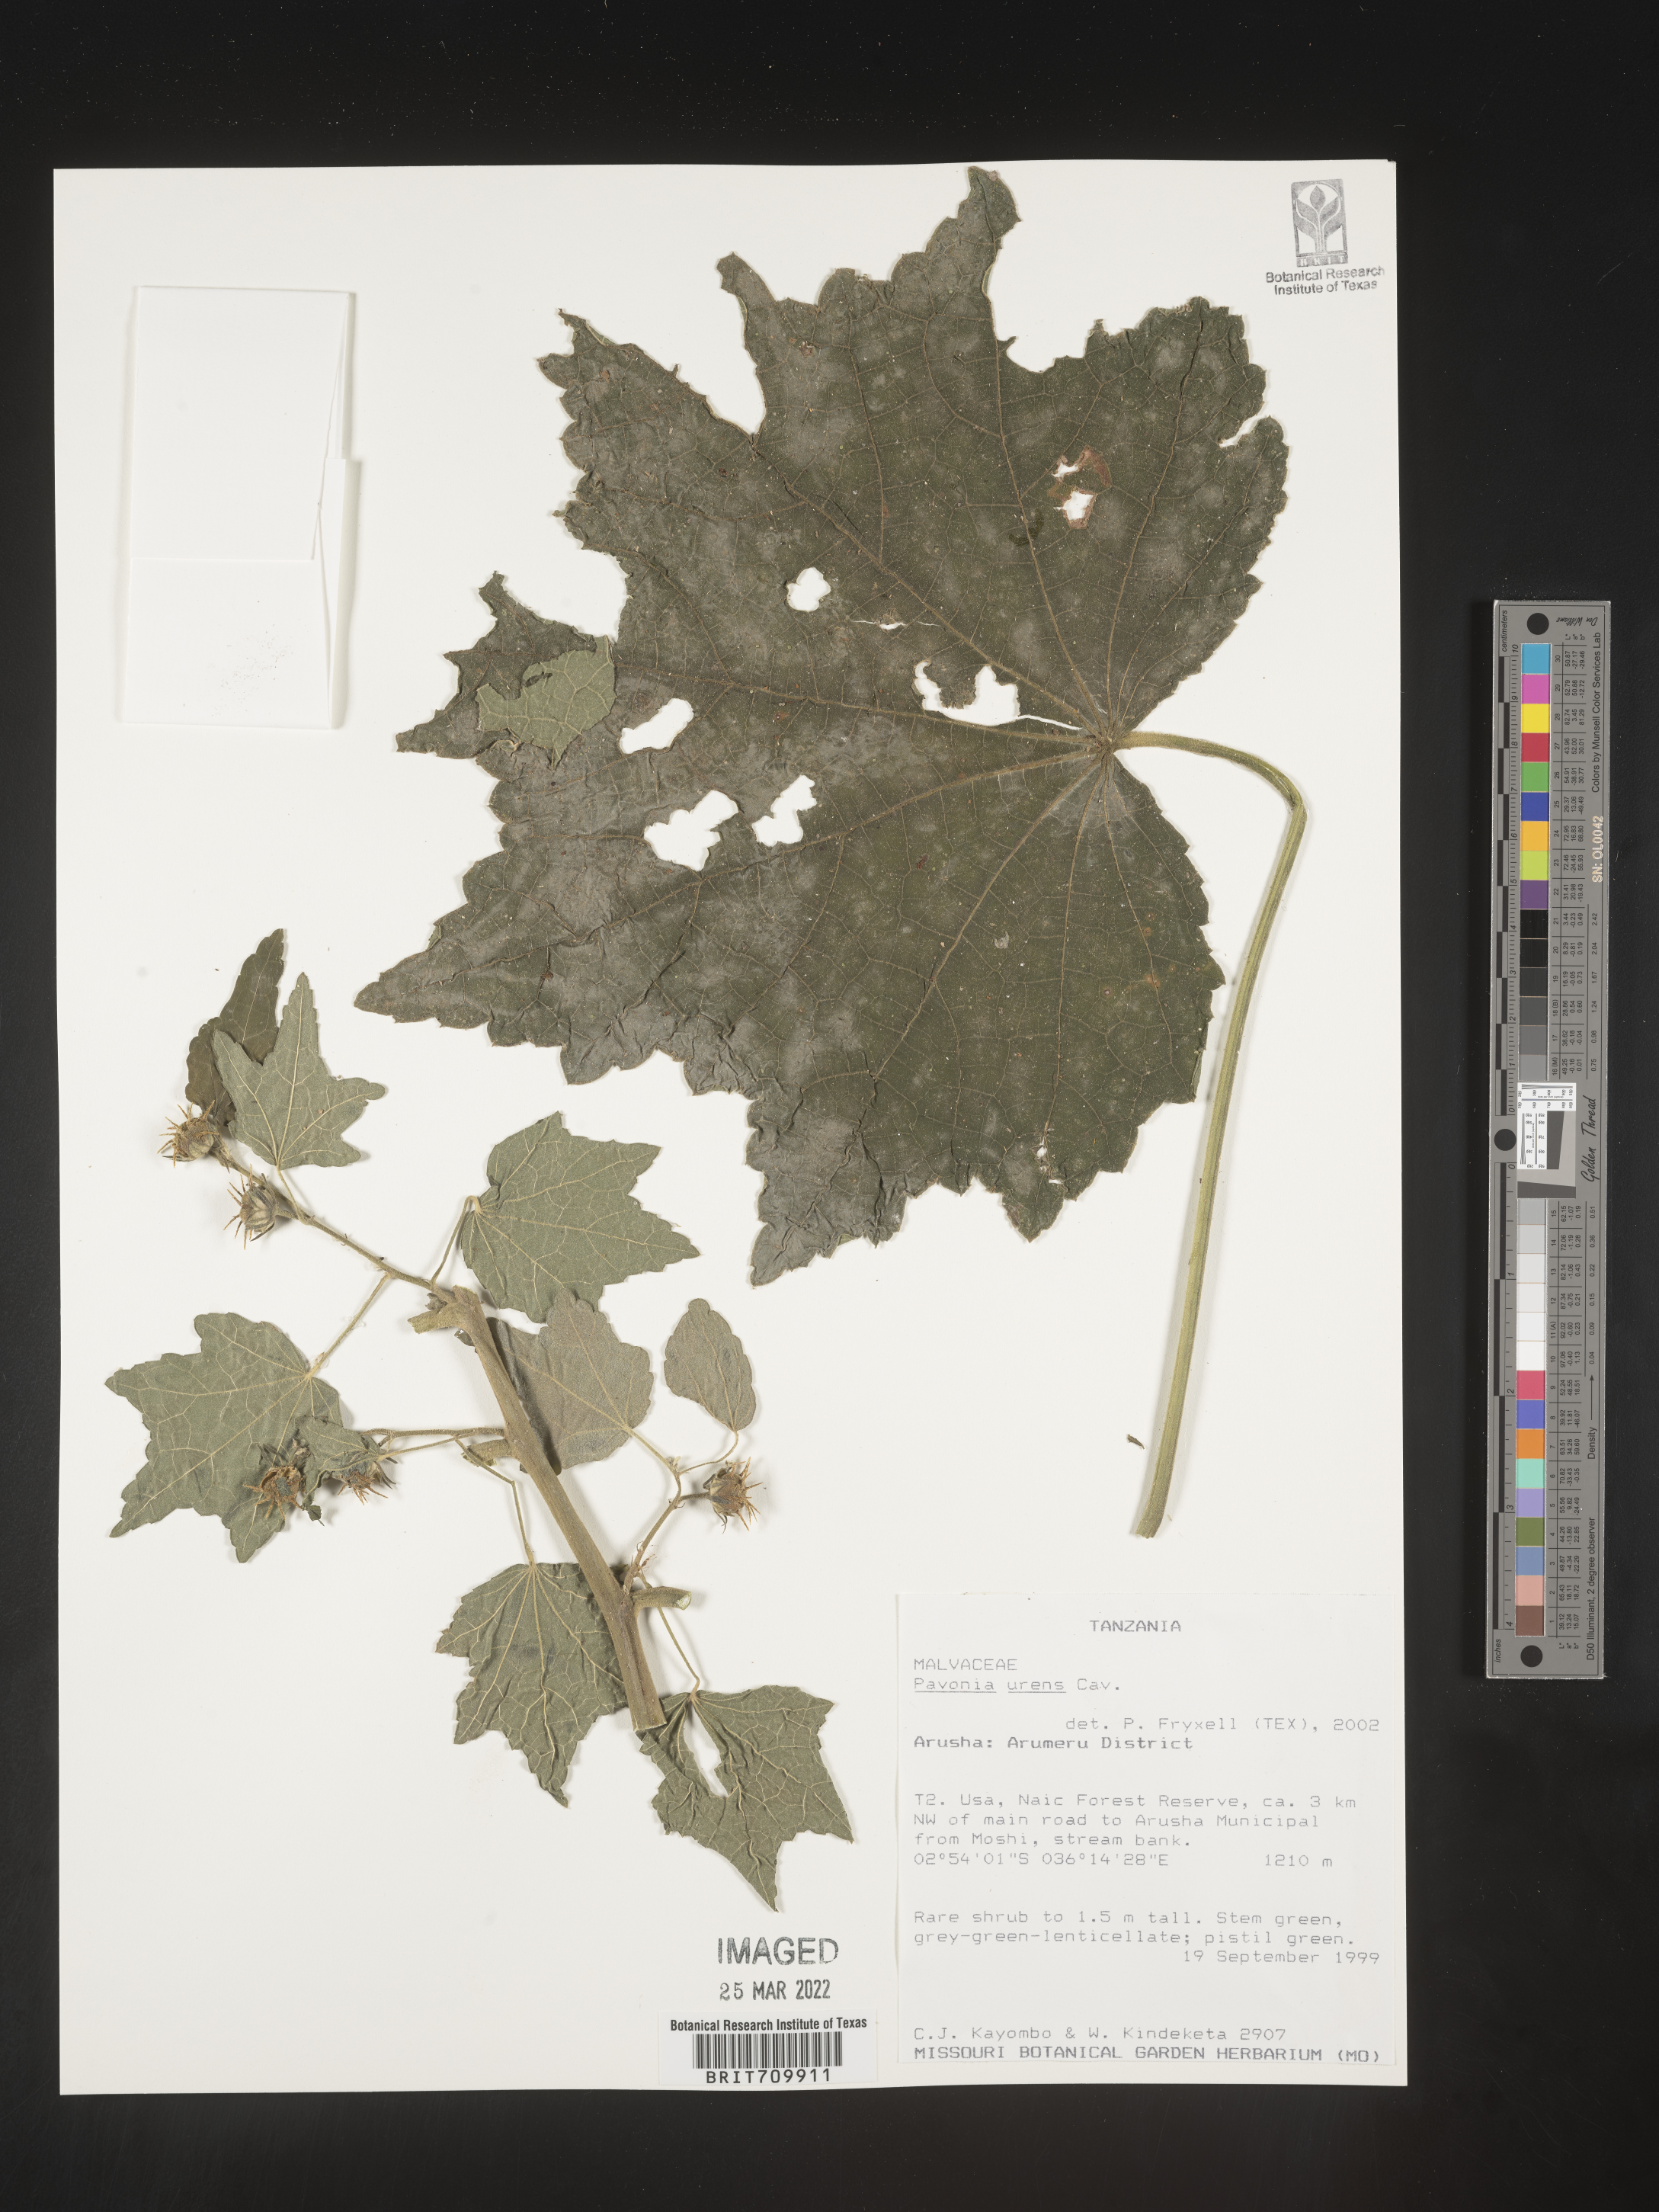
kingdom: Plantae
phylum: Tracheophyta
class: Magnoliopsida
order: Malvales
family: Malvaceae
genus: Pavonia
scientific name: Pavonia
